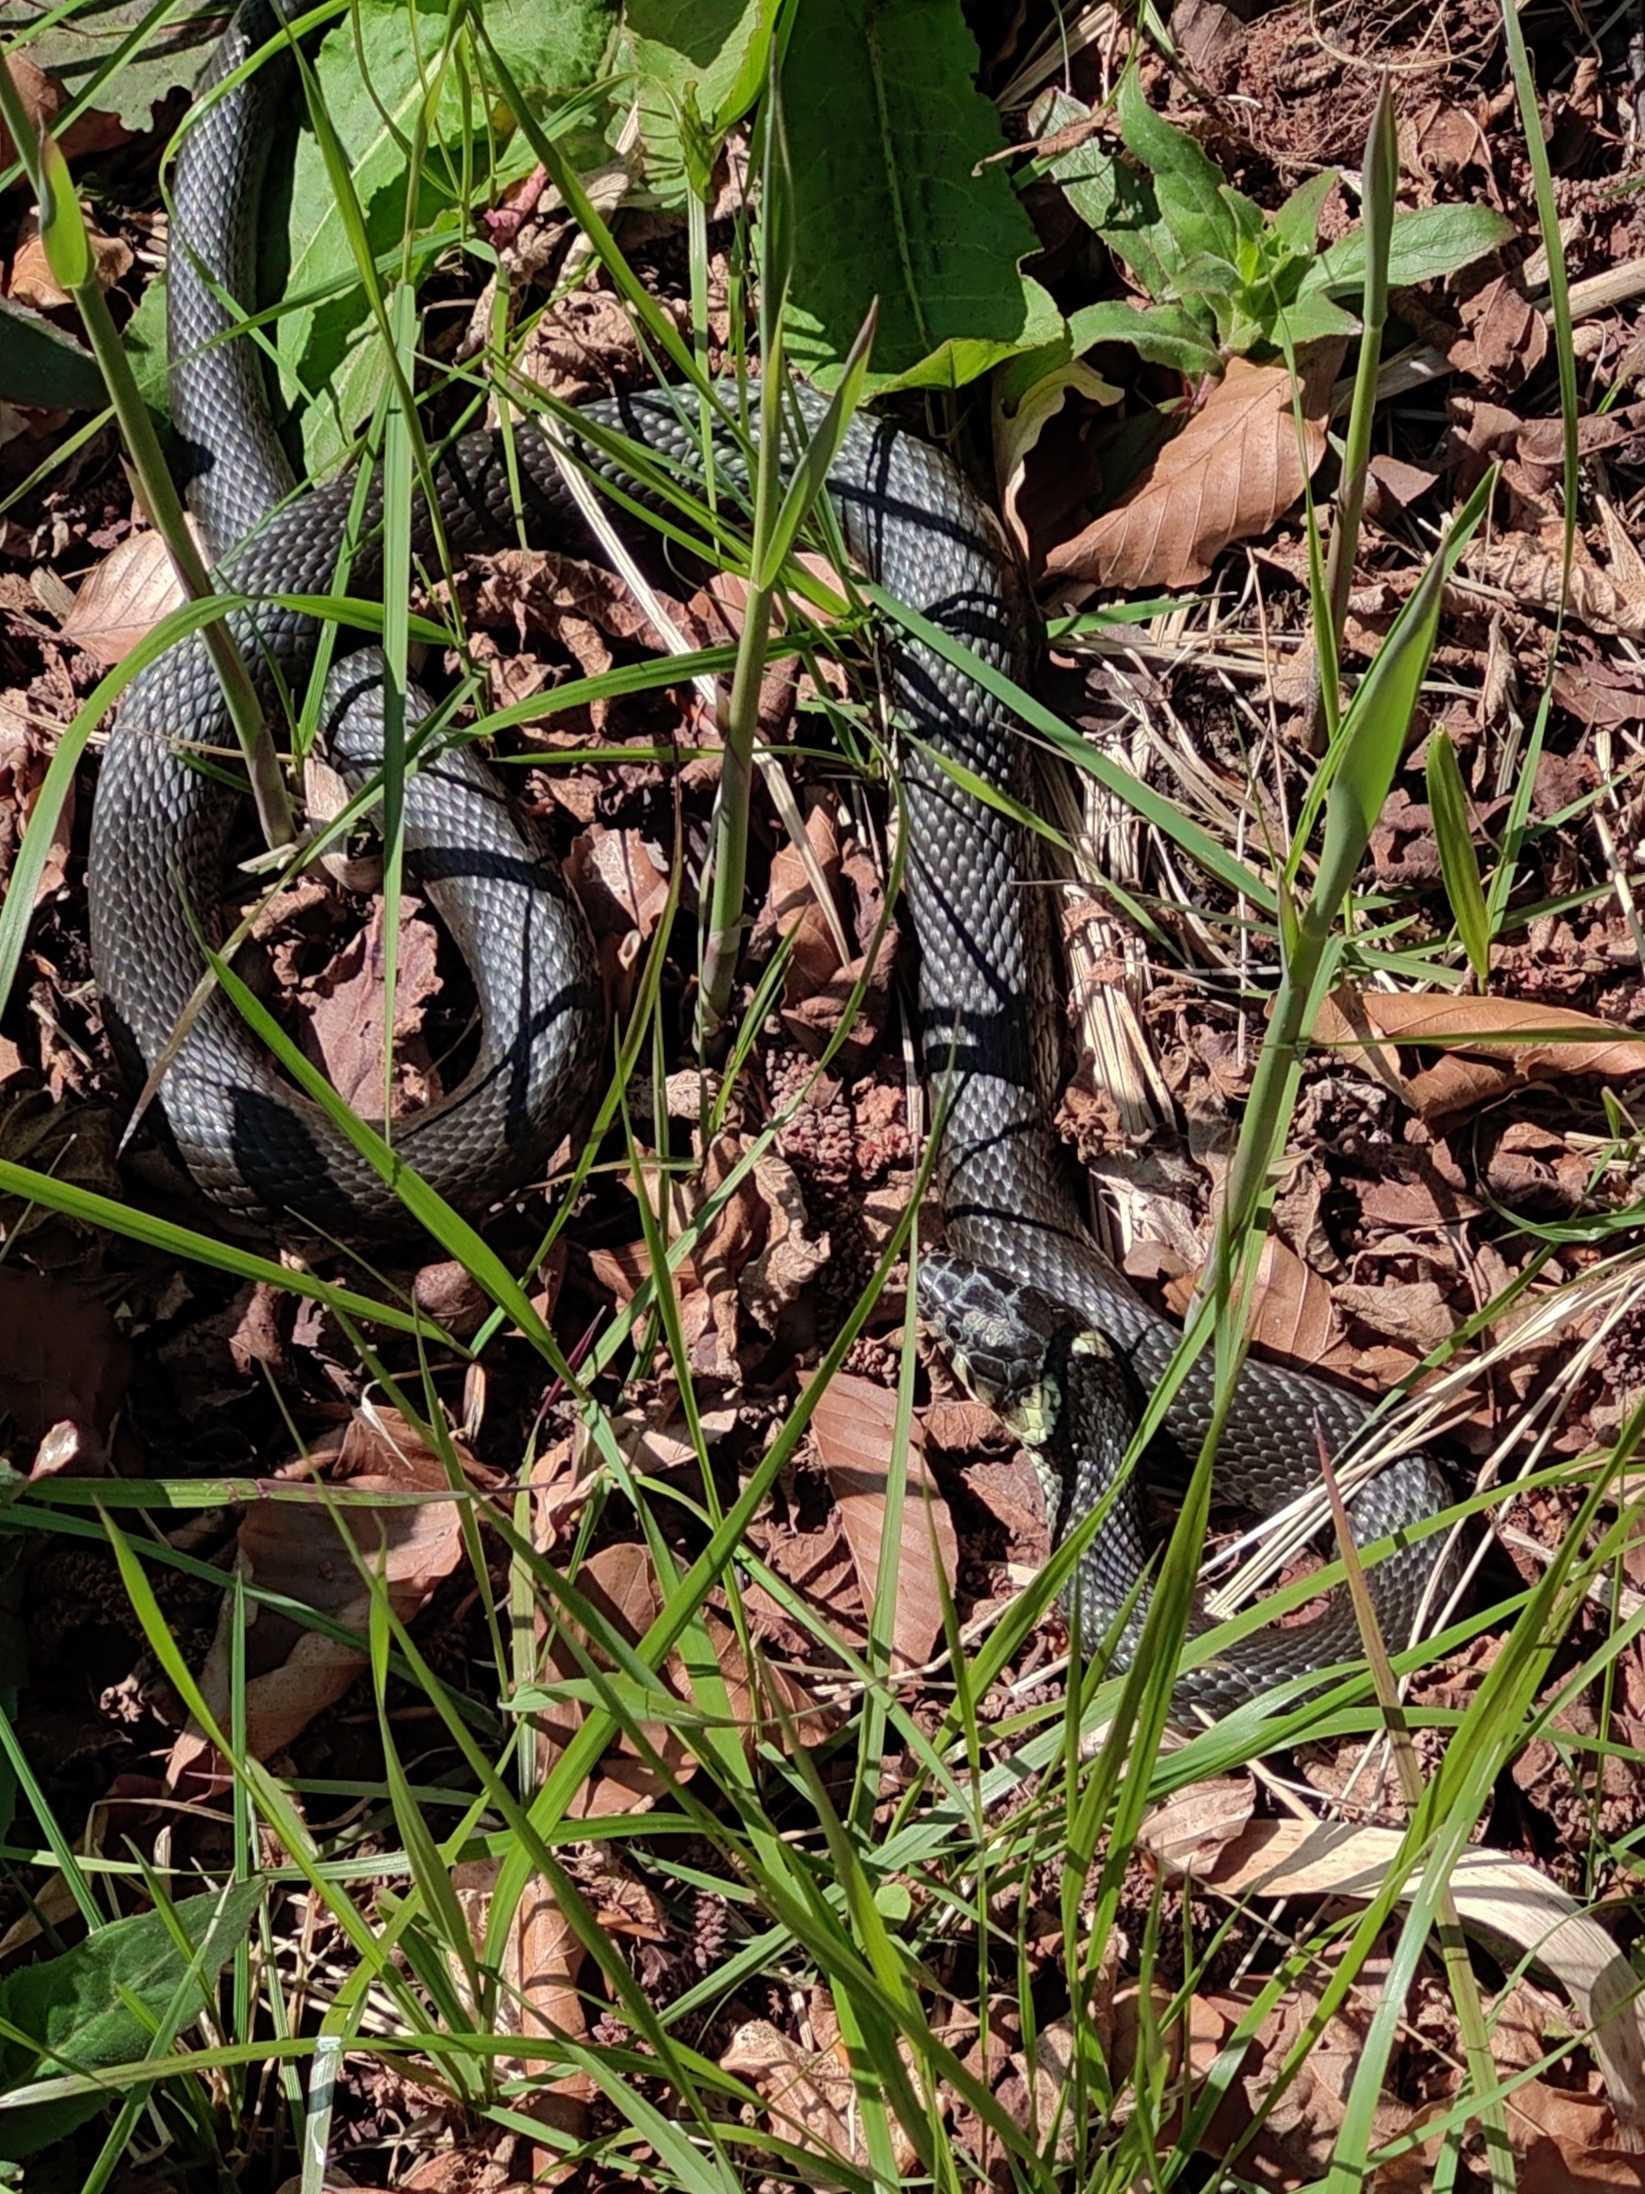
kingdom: Animalia
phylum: Chordata
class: Squamata
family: Colubridae
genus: Natrix
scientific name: Natrix natrix
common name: Snog
